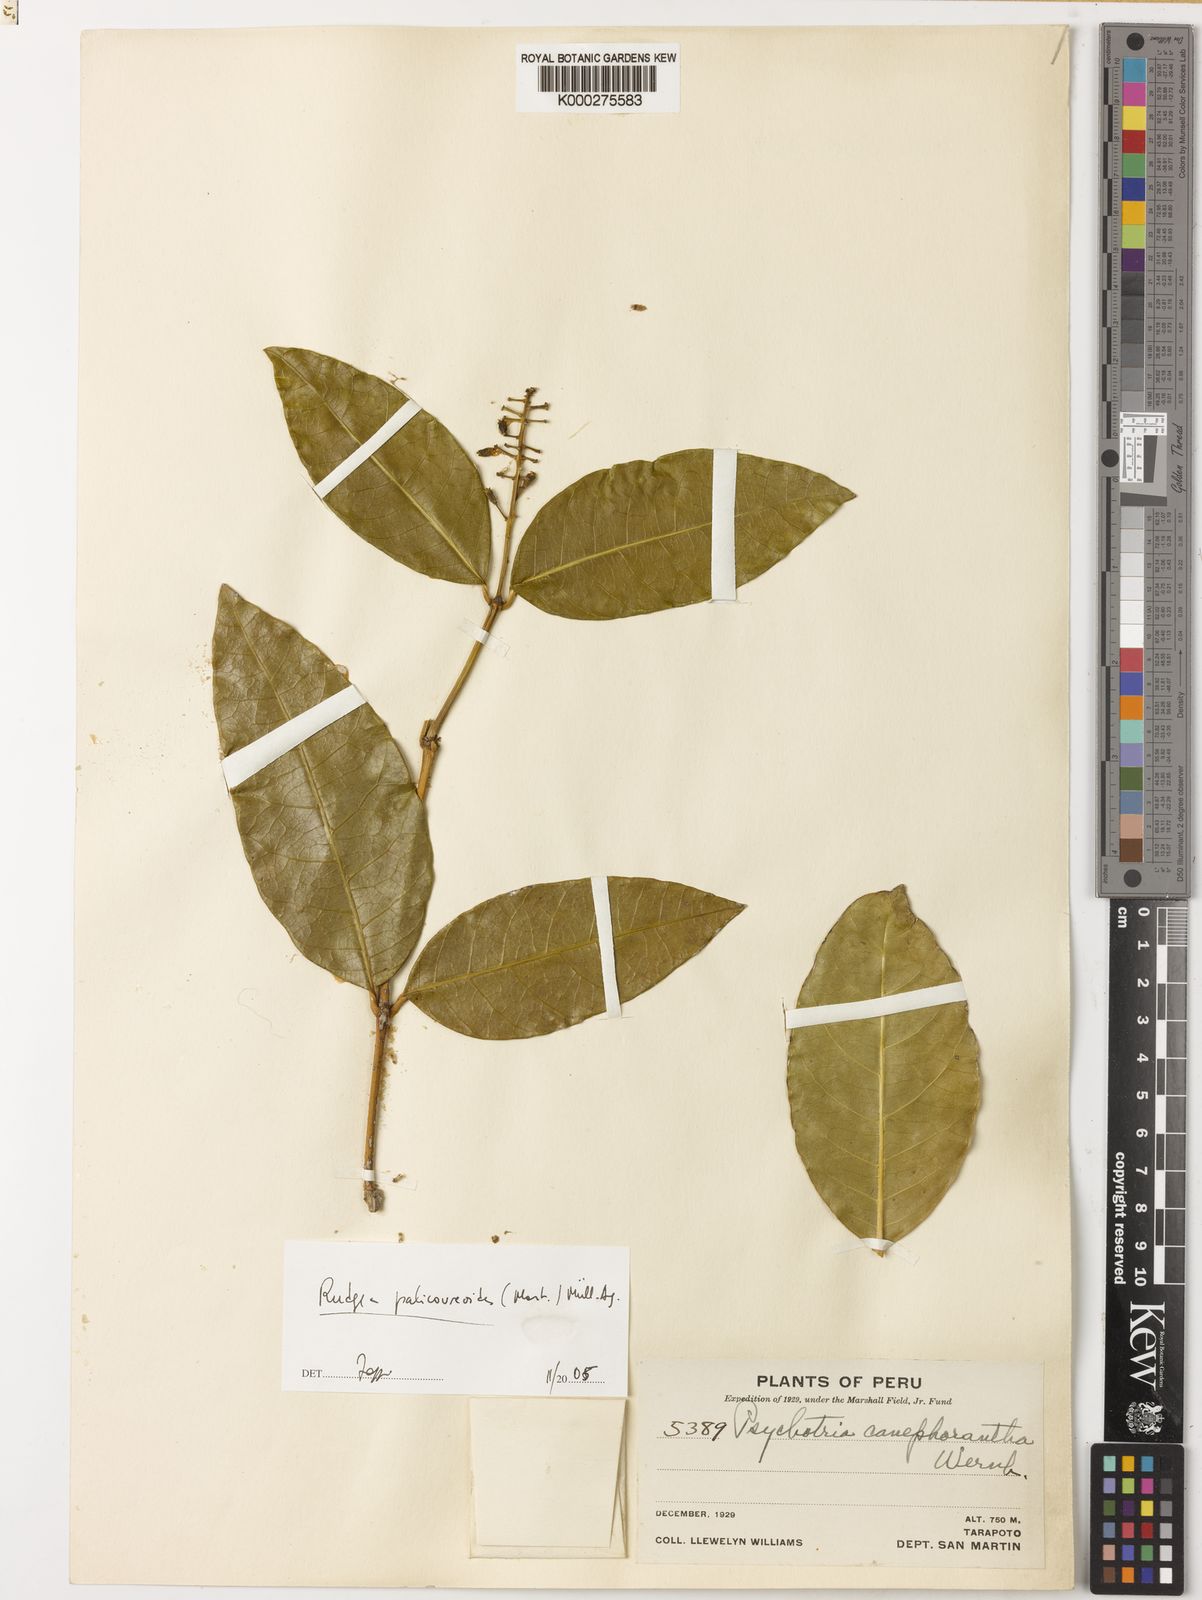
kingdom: Plantae
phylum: Tracheophyta
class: Magnoliopsida
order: Gentianales
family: Rubiaceae
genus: Rudgea
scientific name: Rudgea palicoureoides
